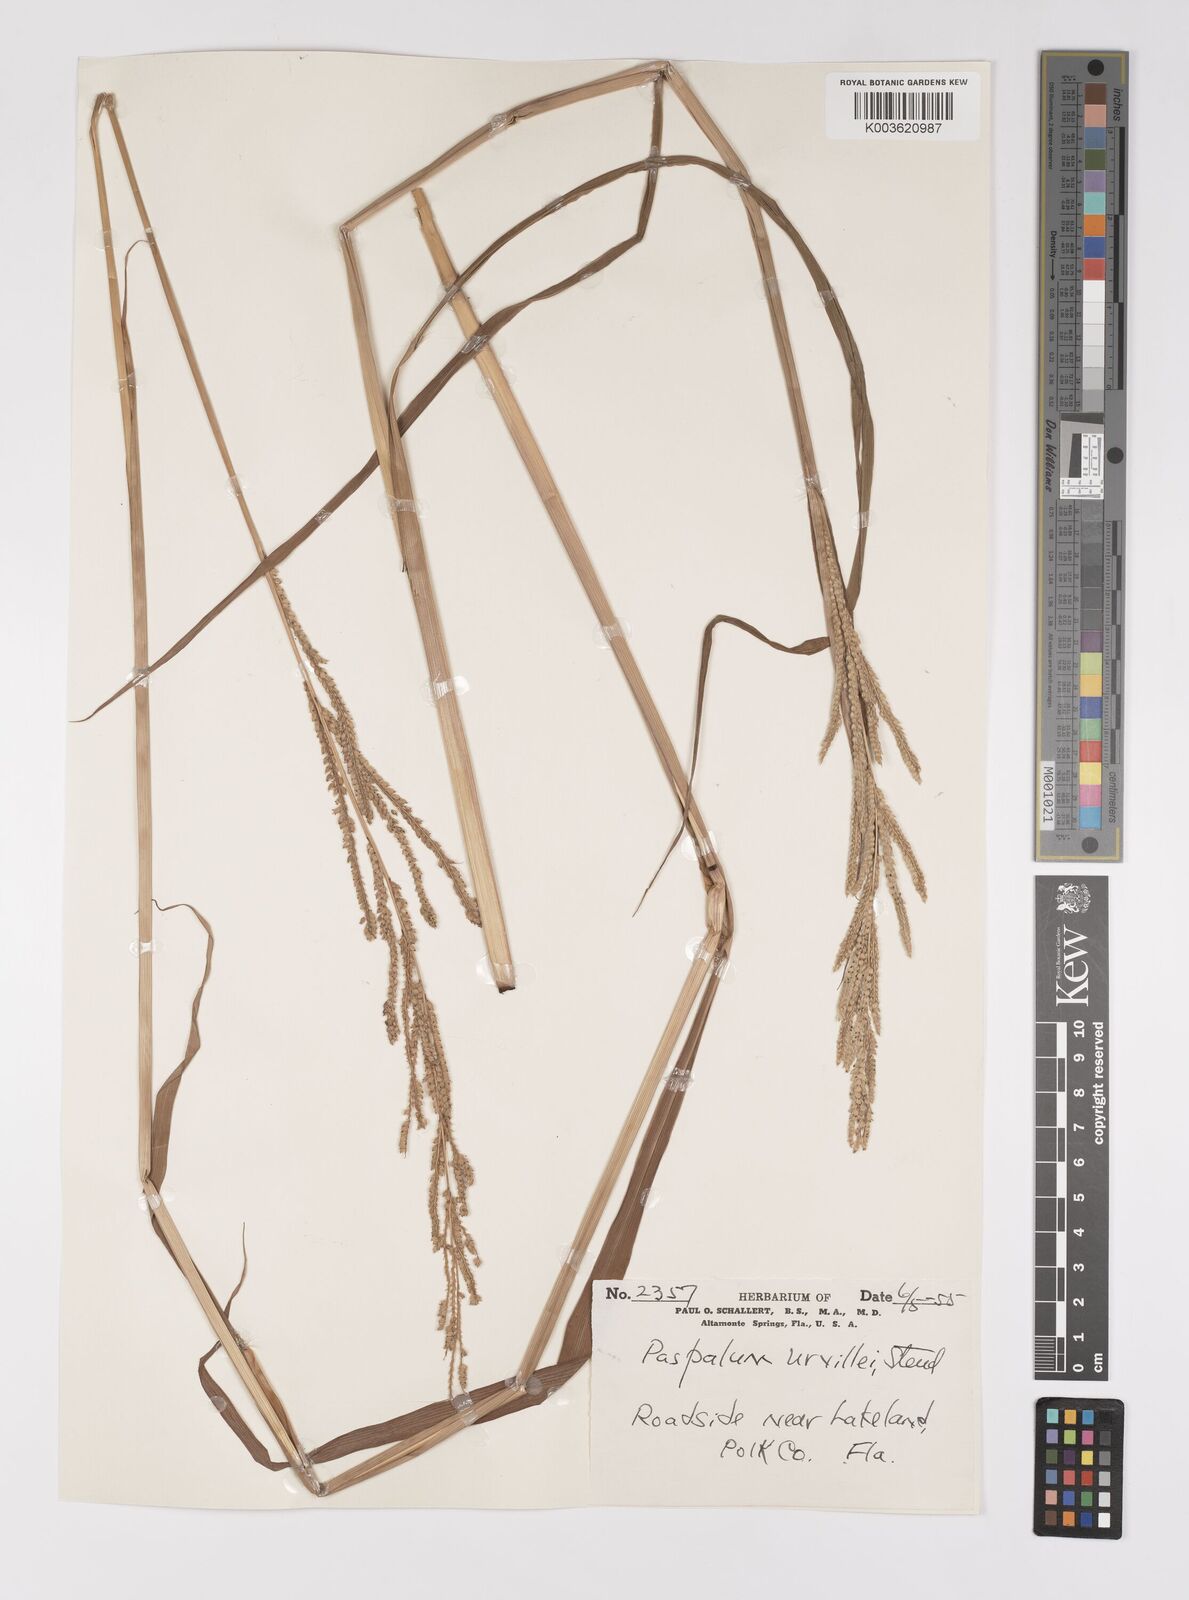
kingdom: Plantae
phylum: Tracheophyta
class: Liliopsida
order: Poales
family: Poaceae
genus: Paspalum
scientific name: Paspalum urvillei
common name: Vasey's grass
